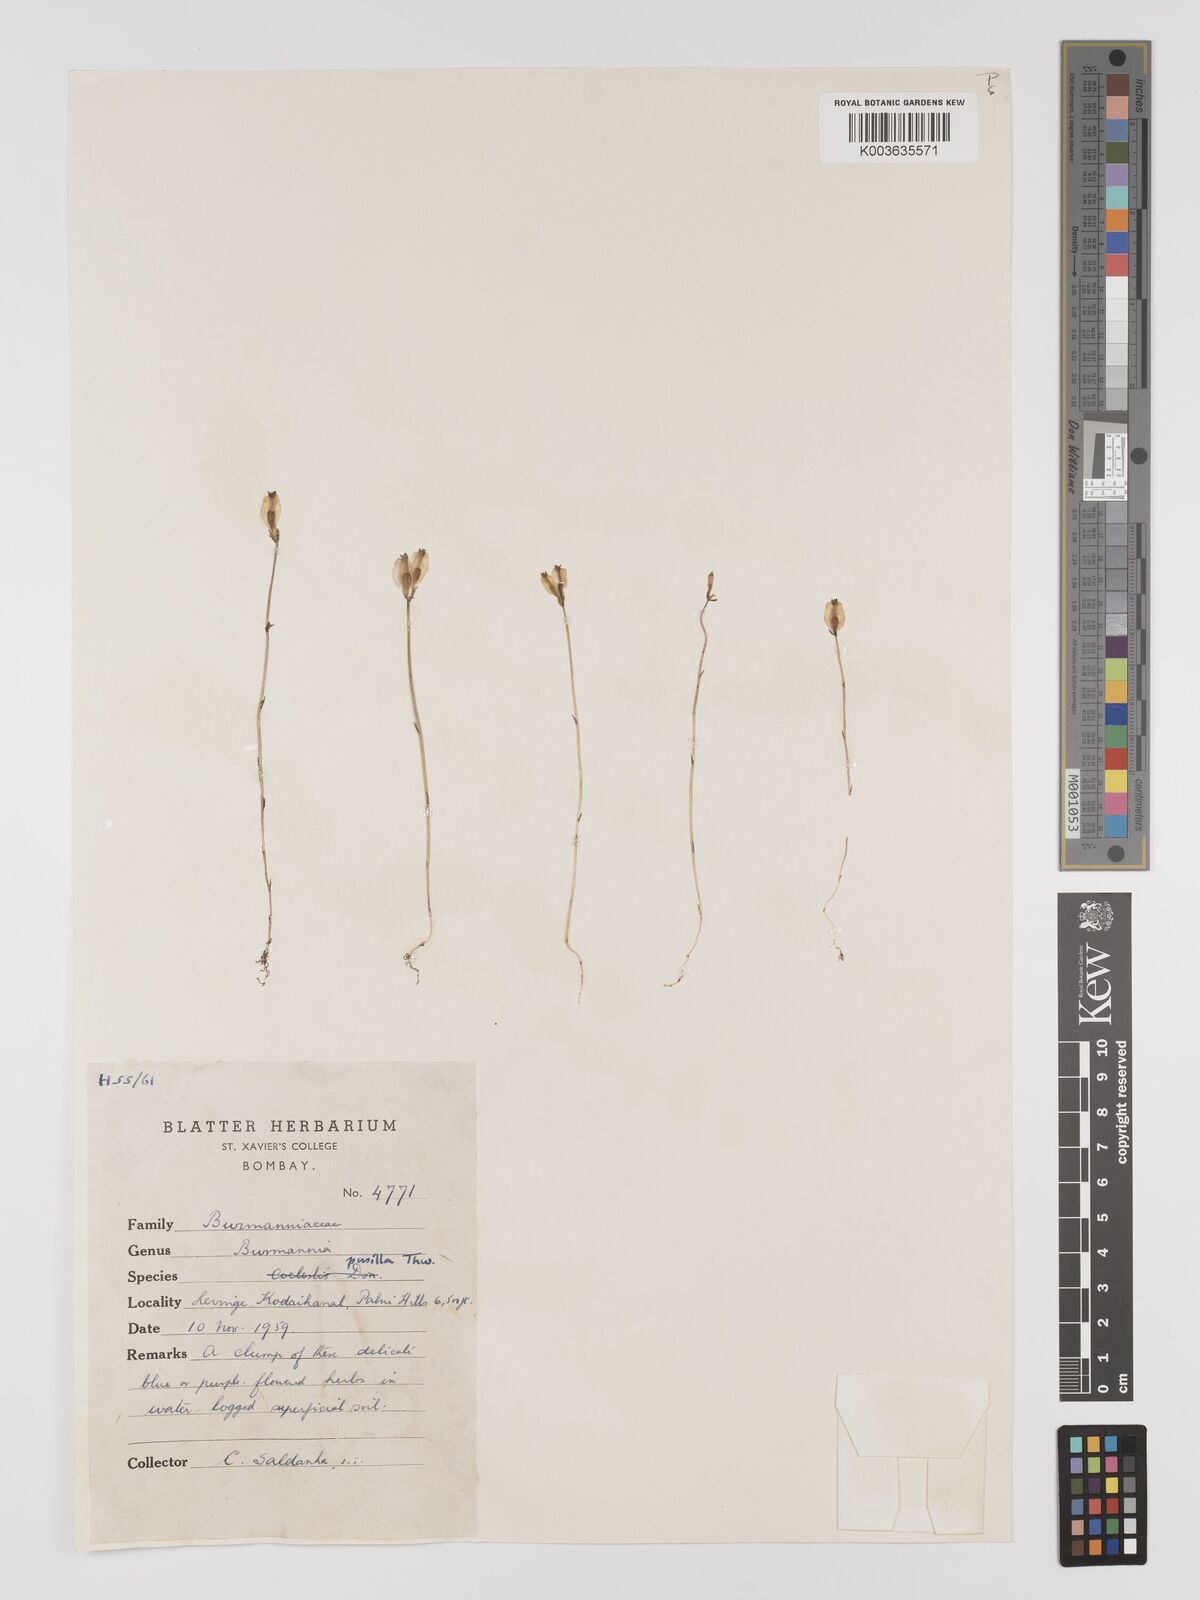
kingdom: Plantae
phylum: Tracheophyta
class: Liliopsida
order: Dioscoreales
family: Burmanniaceae
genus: Burmannia
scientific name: Burmannia pusilla
